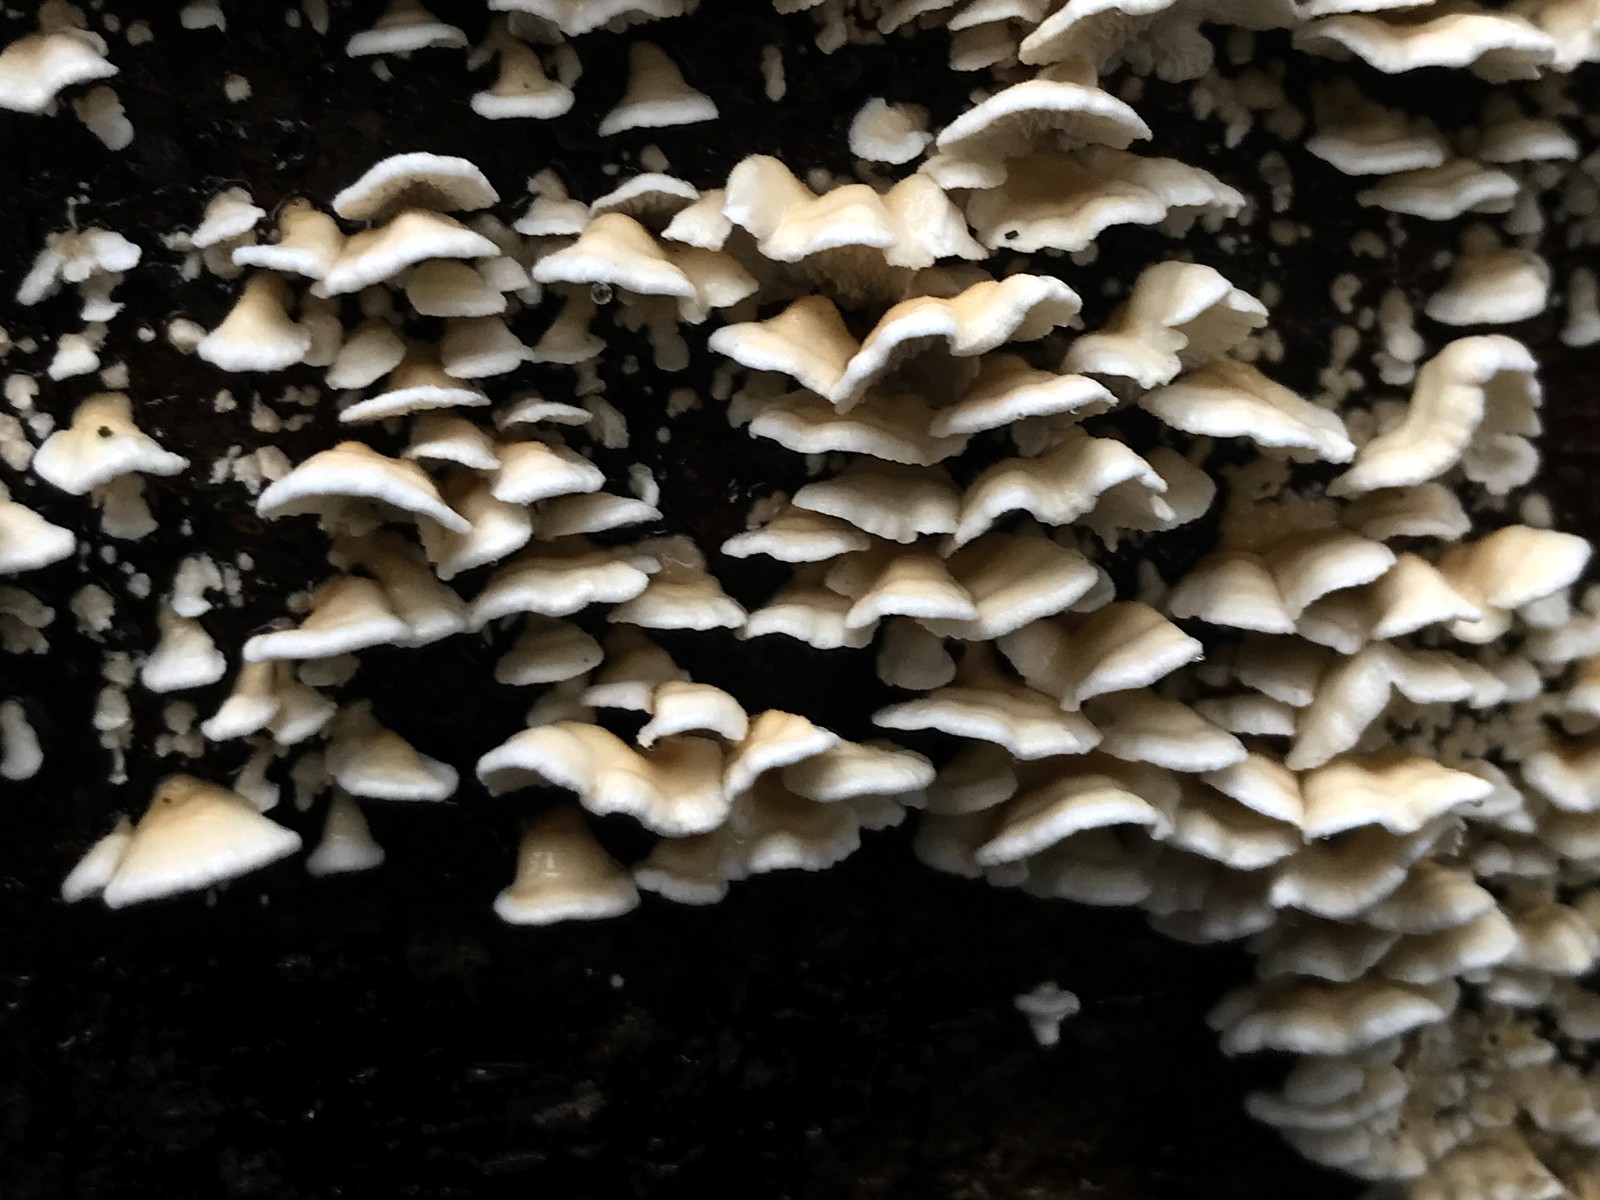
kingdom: Fungi
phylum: Basidiomycota
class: Agaricomycetes
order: Amylocorticiales
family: Amylocorticiaceae
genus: Plicaturopsis
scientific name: Plicaturopsis crispa
